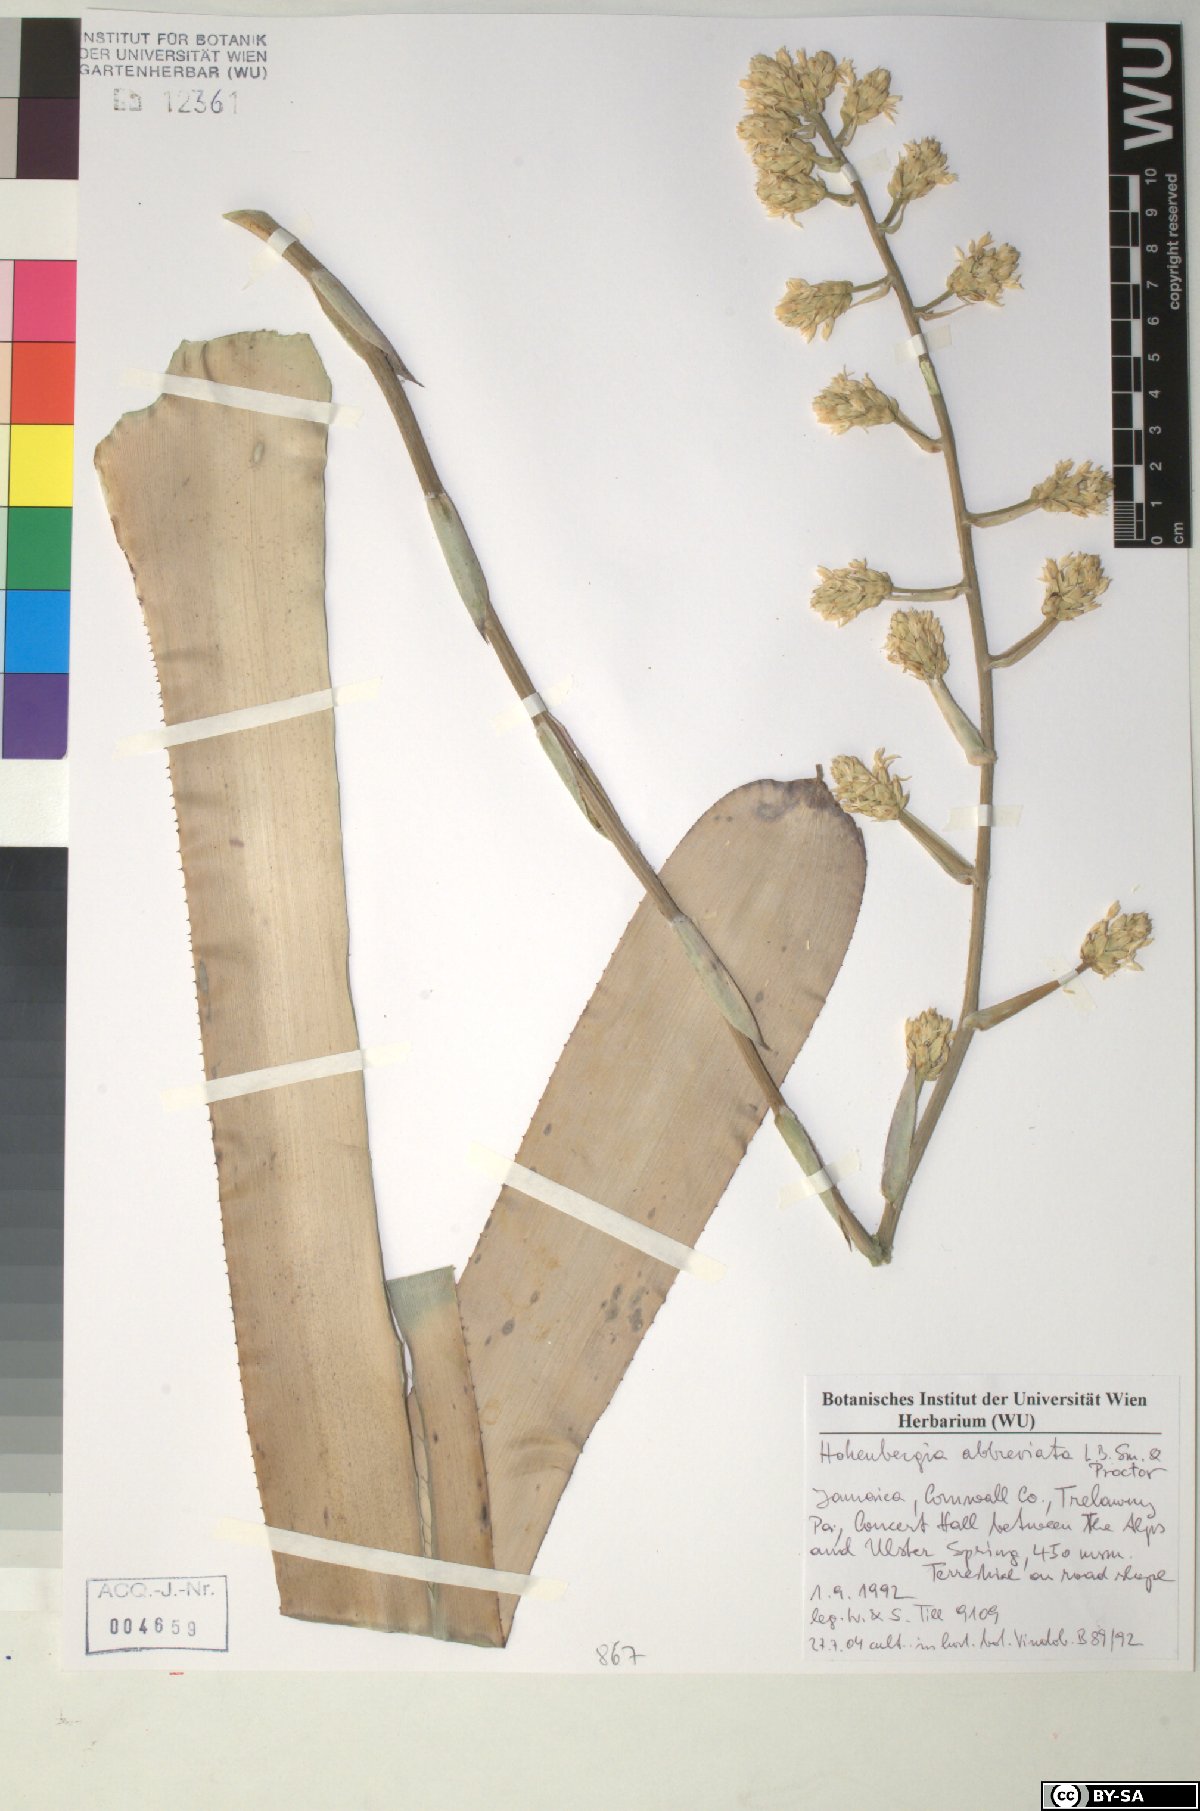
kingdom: Plantae
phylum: Tracheophyta
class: Liliopsida
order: Poales
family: Bromeliaceae
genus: Wittmackia
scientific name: Wittmackia abbreviata
